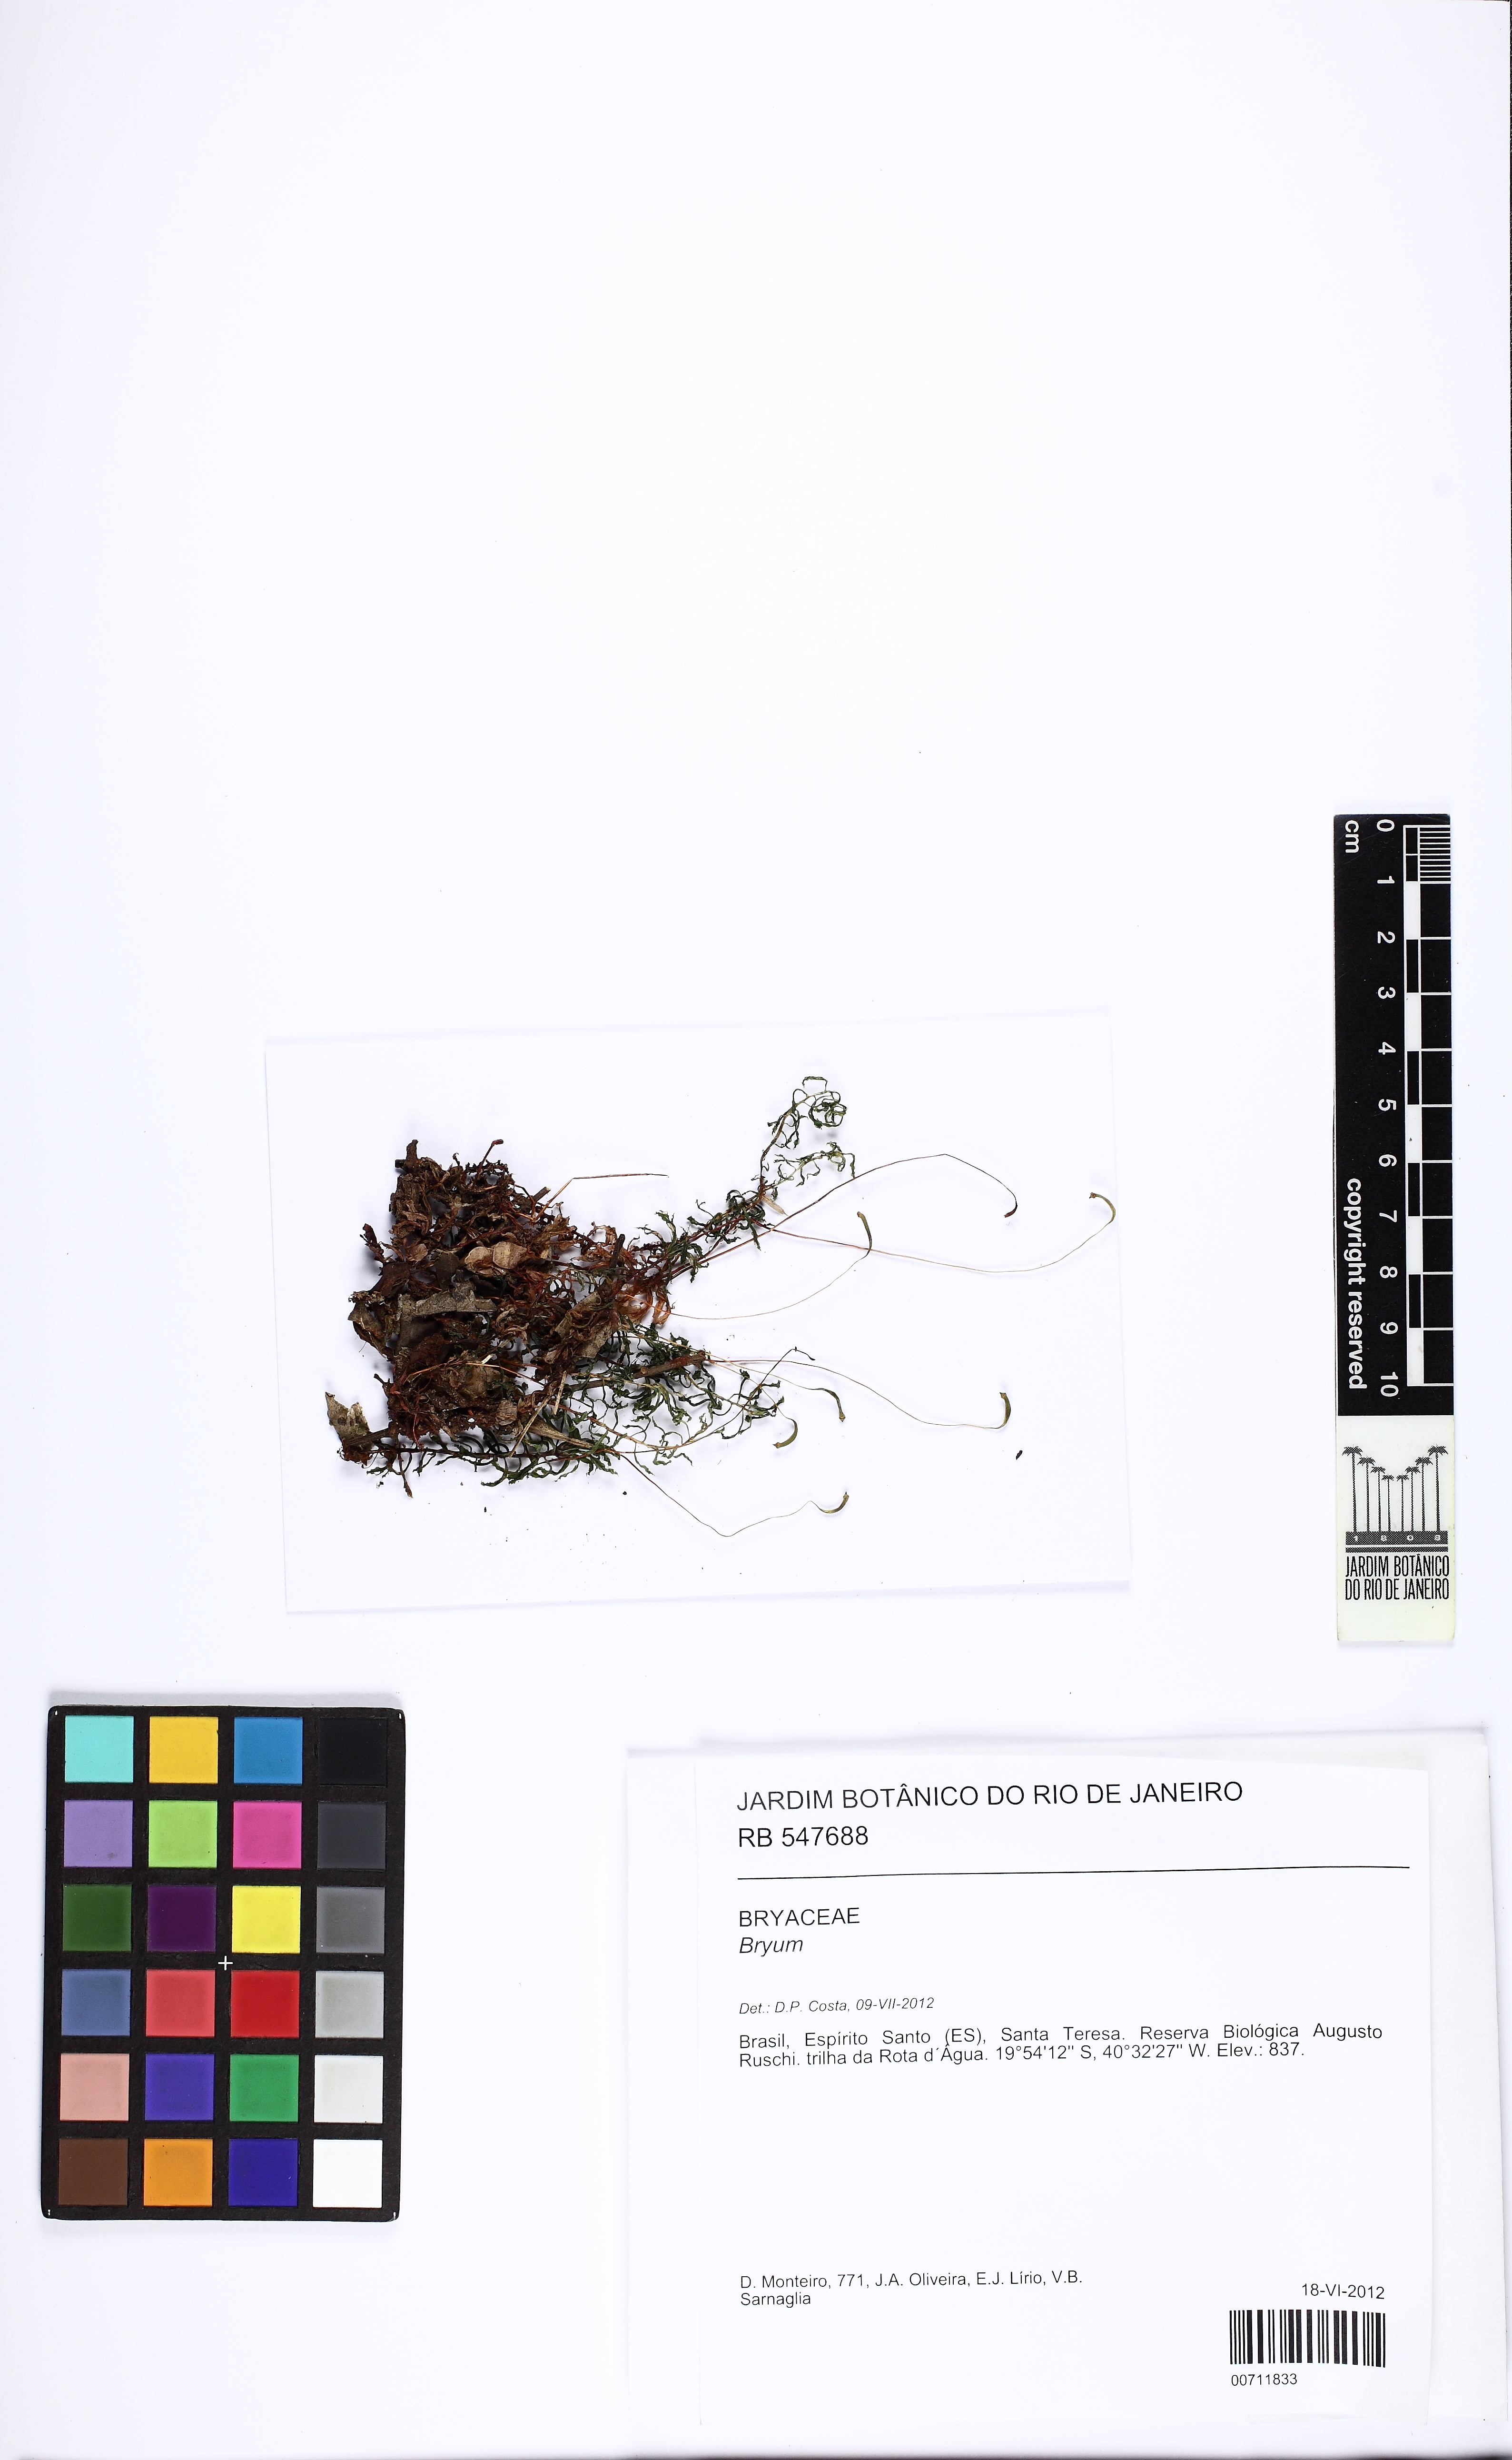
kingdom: Plantae
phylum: Bryophyta
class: Bryopsida
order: Bryales
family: Bryaceae
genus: Bryum
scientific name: Bryum
